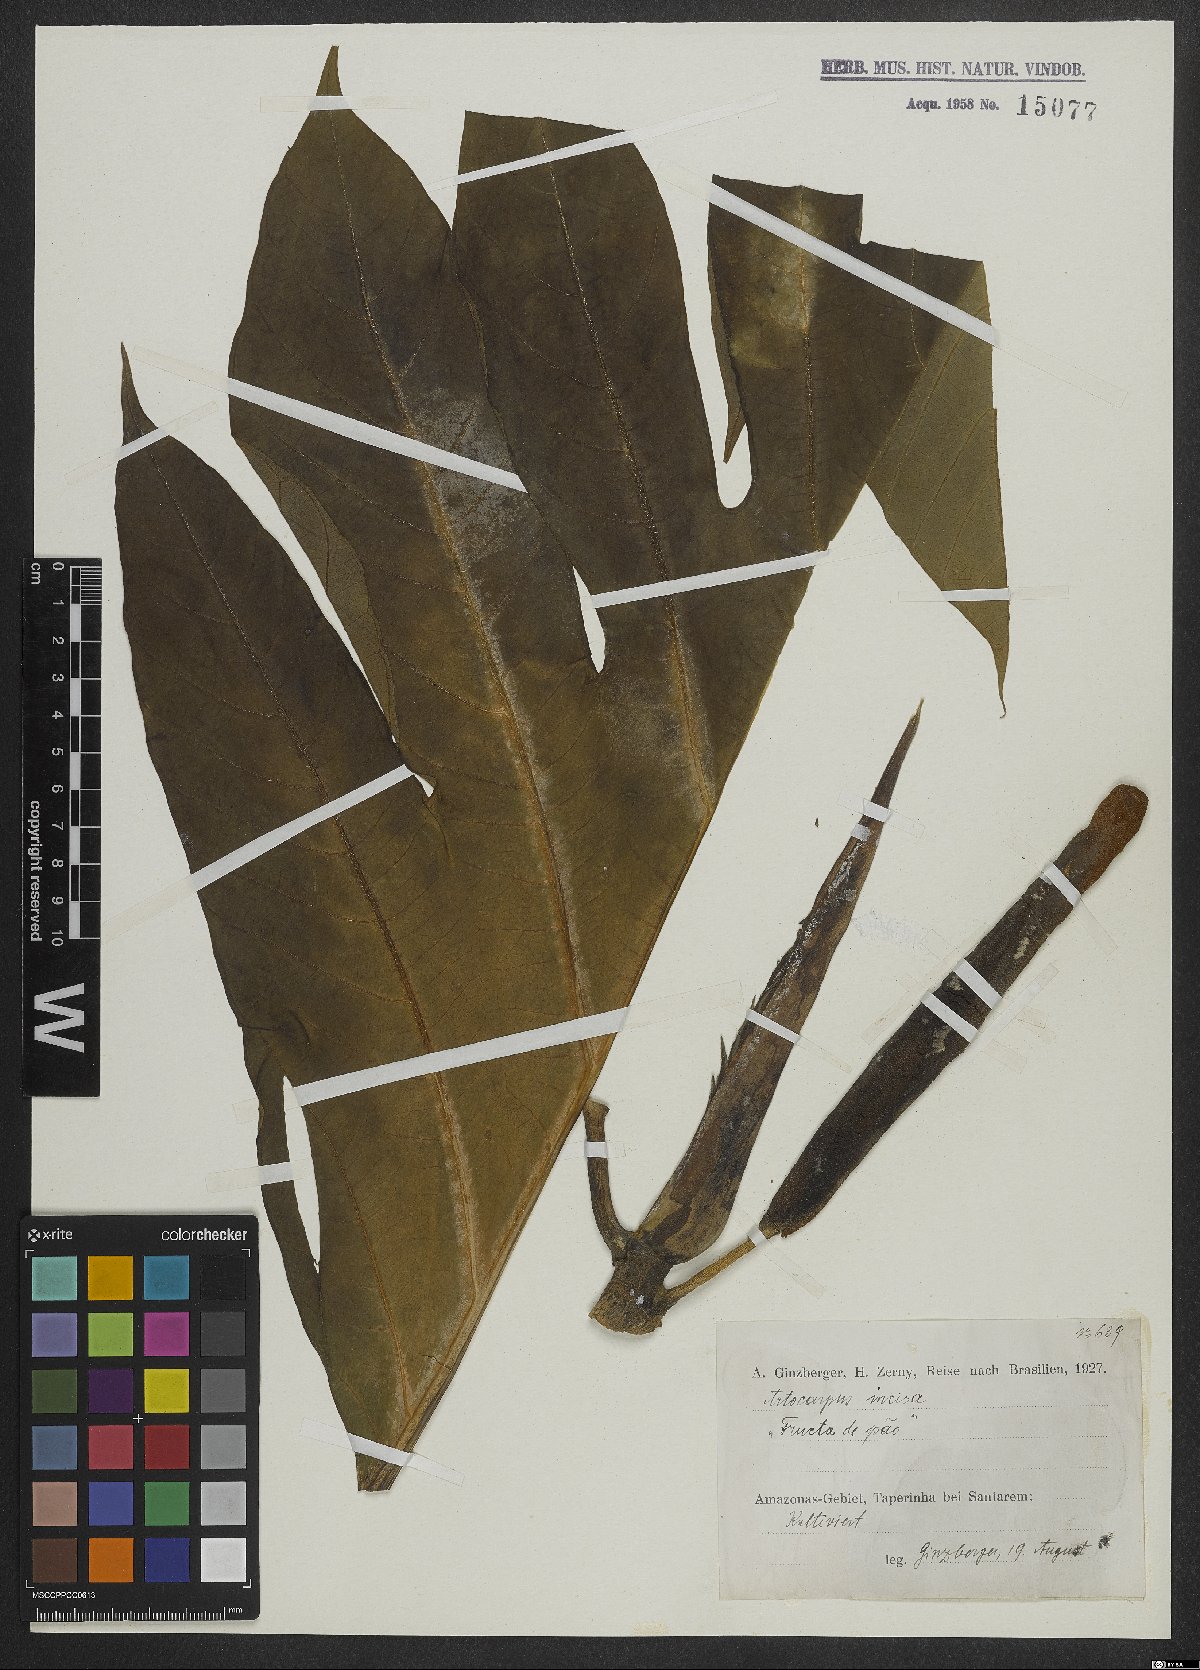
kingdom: Plantae
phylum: Tracheophyta
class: Magnoliopsida
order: Rosales
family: Moraceae
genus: Artocarpus
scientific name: Artocarpus altilis
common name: Breadfruit
